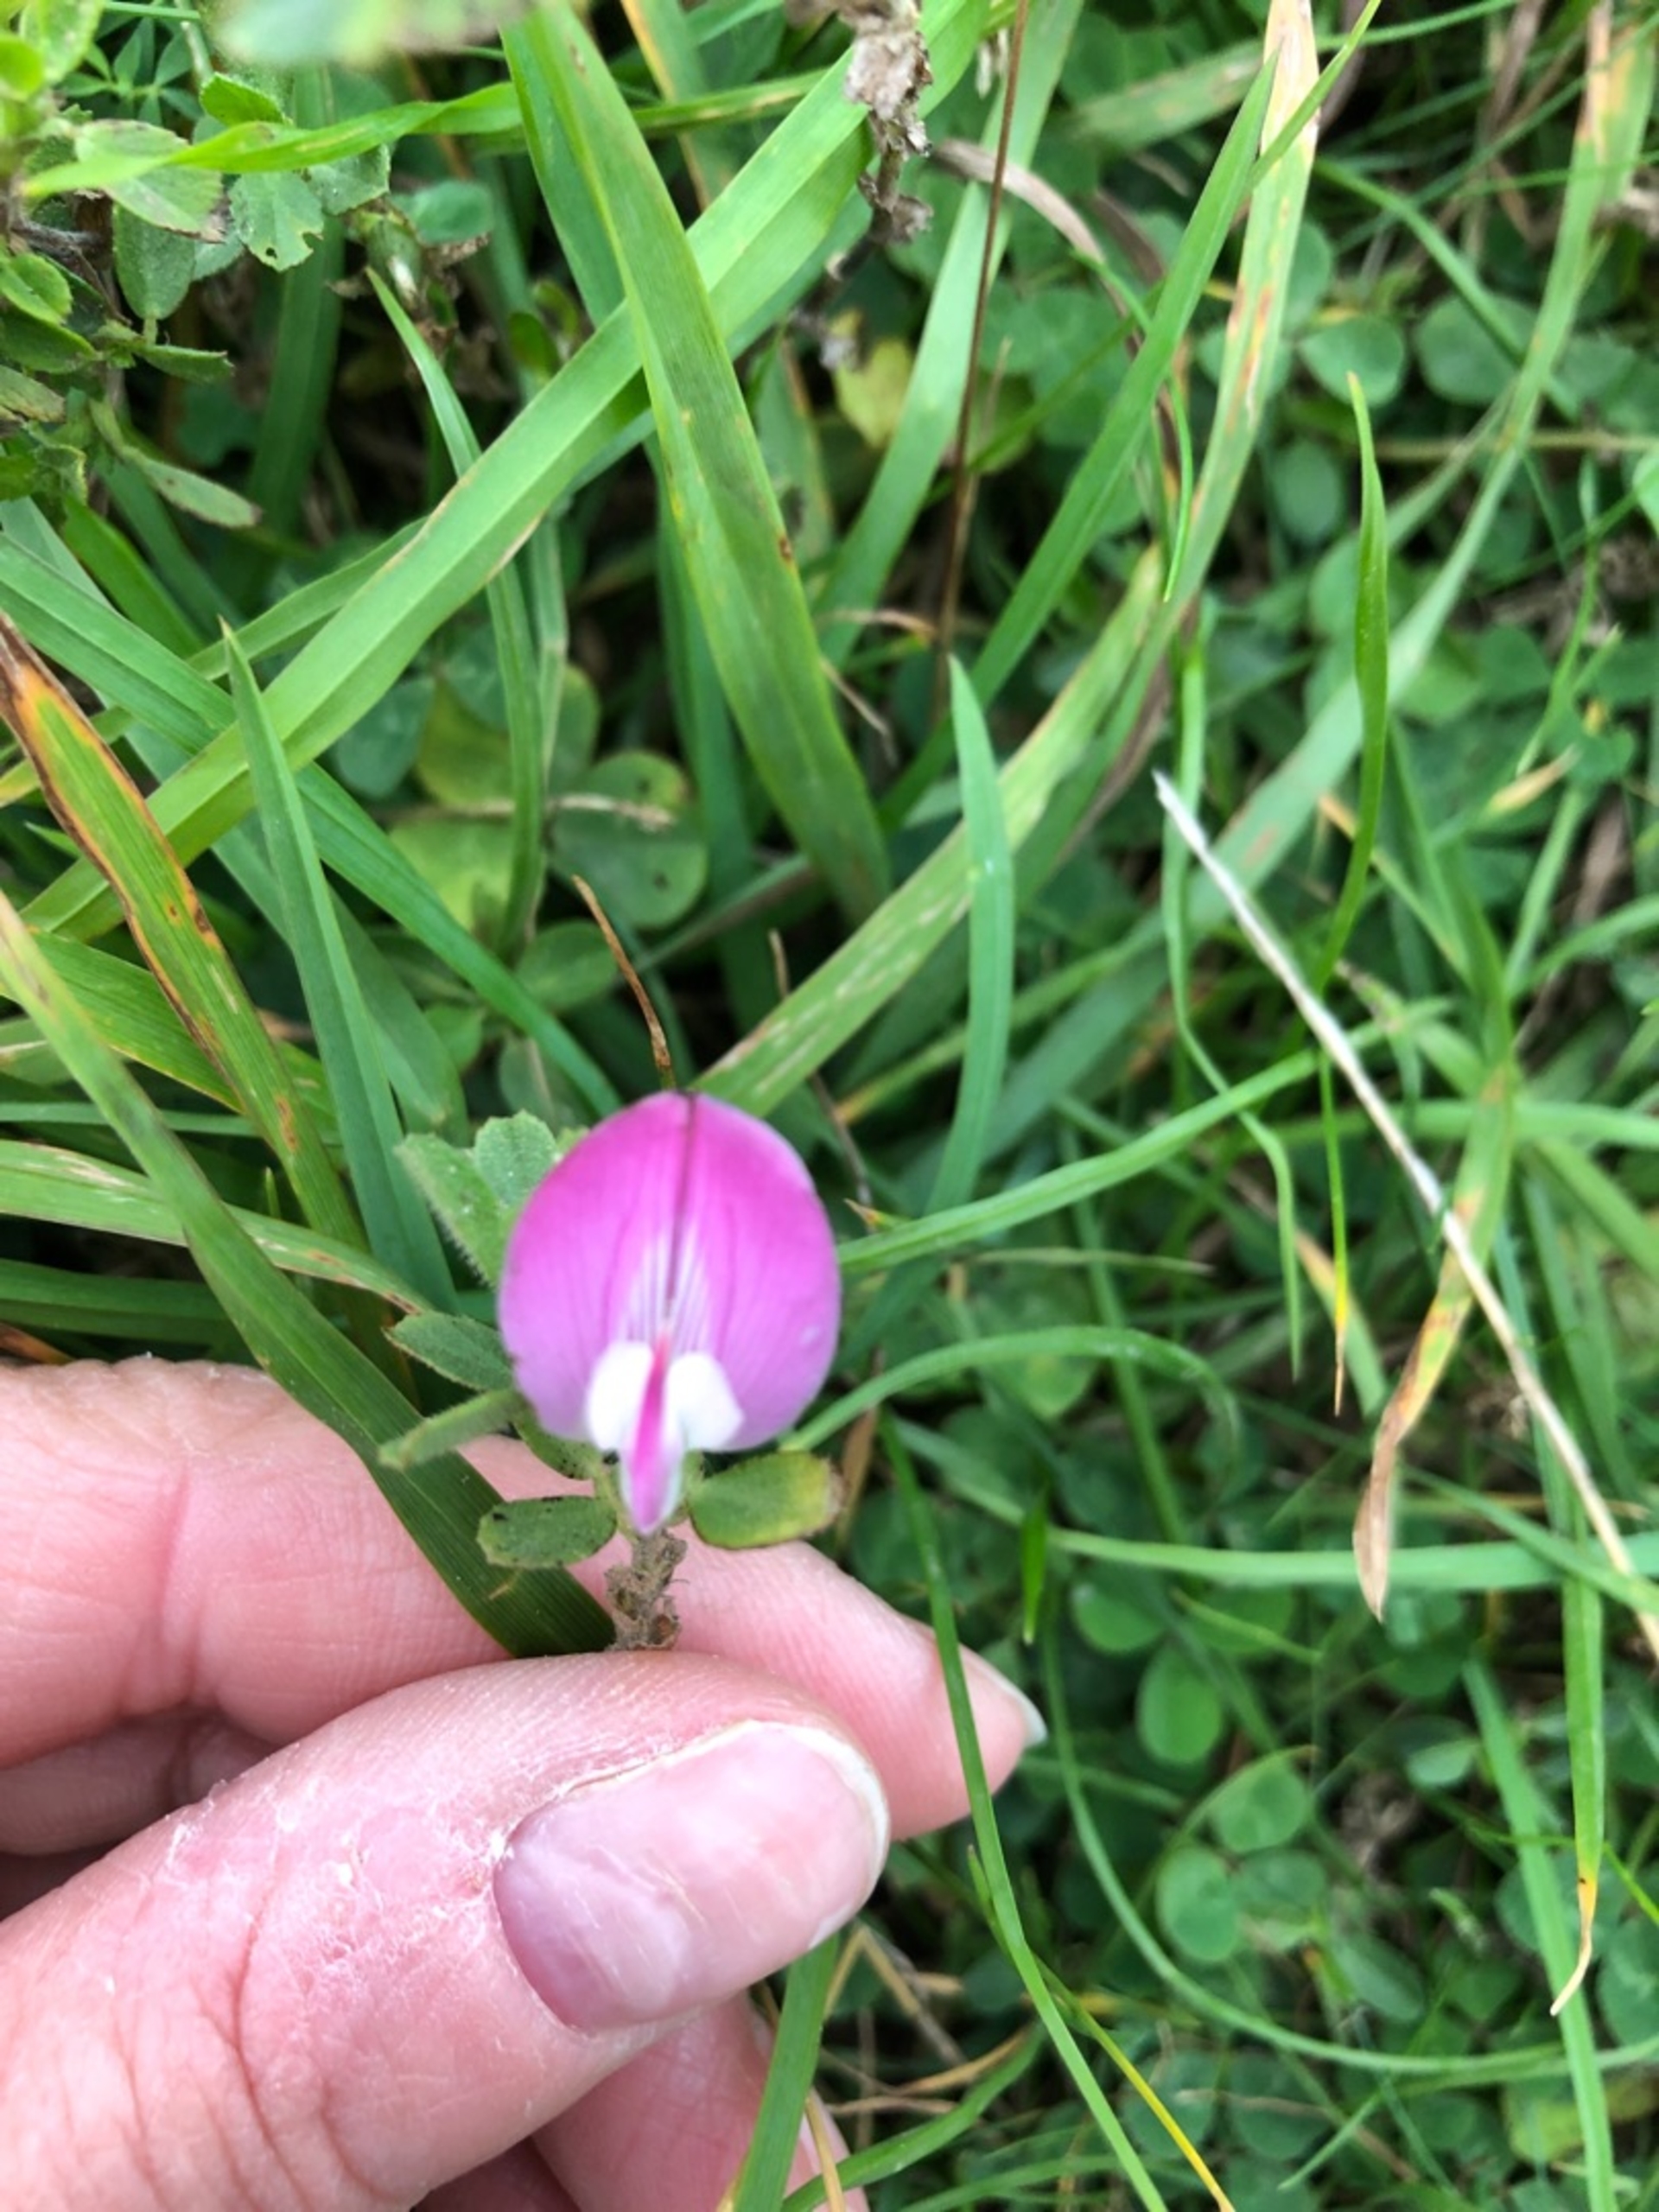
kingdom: Plantae
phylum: Tracheophyta
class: Magnoliopsida
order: Fabales
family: Fabaceae
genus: Ononis
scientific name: Ononis spinosa
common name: Mark-krageklo
